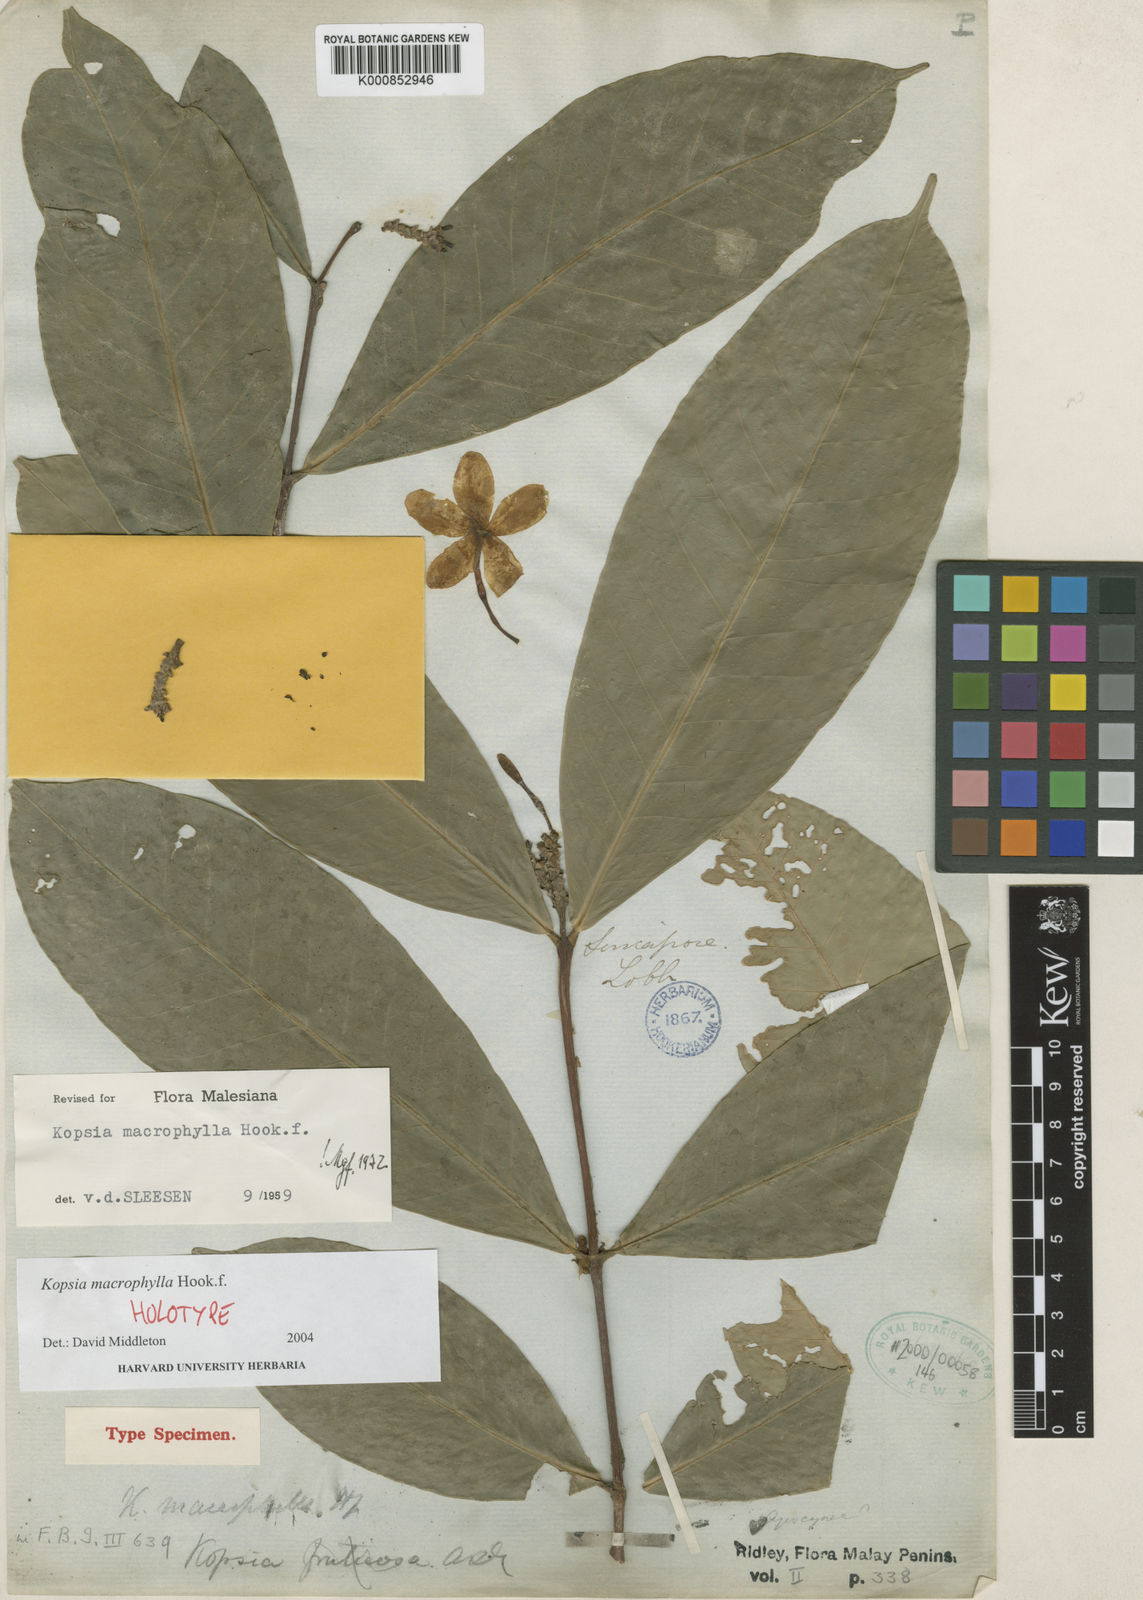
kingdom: Plantae
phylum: Tracheophyta
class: Magnoliopsida
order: Gentianales
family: Apocynaceae
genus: Kopsia
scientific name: Kopsia macrophylla
